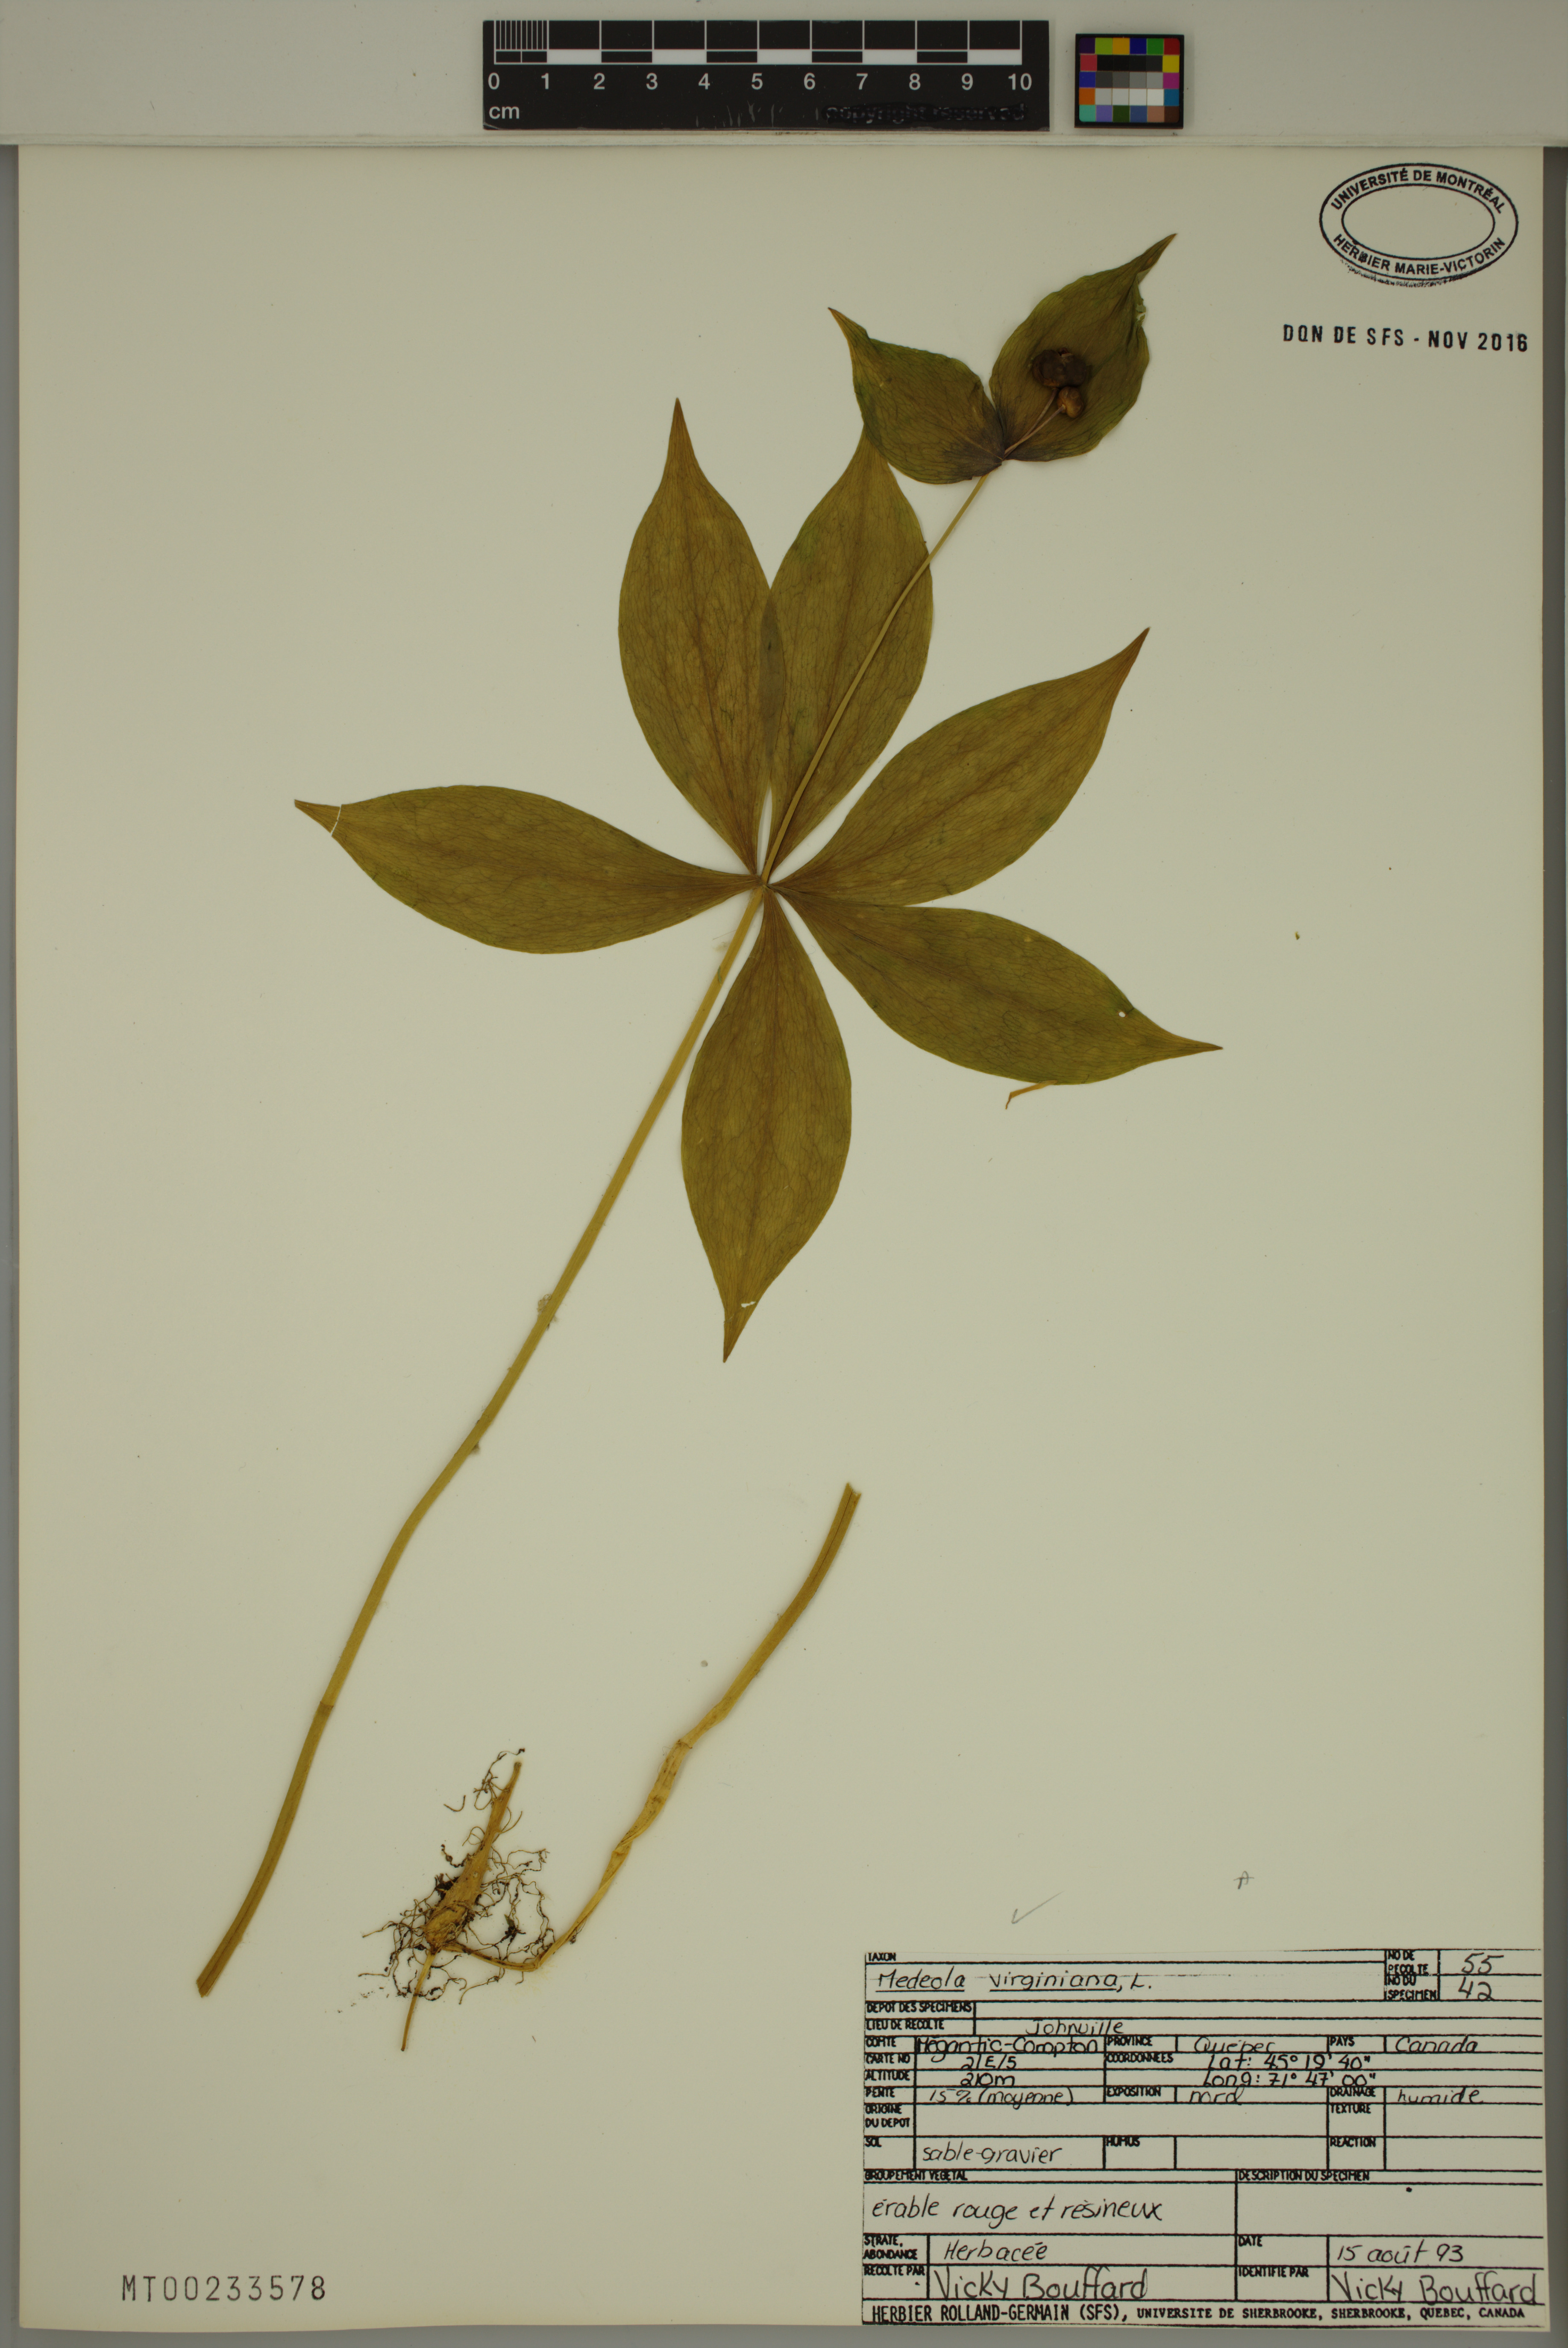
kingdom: Plantae
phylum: Tracheophyta
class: Liliopsida
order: Liliales
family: Liliaceae
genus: Medeola
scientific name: Medeola virginiana
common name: Indian cucumber-root
